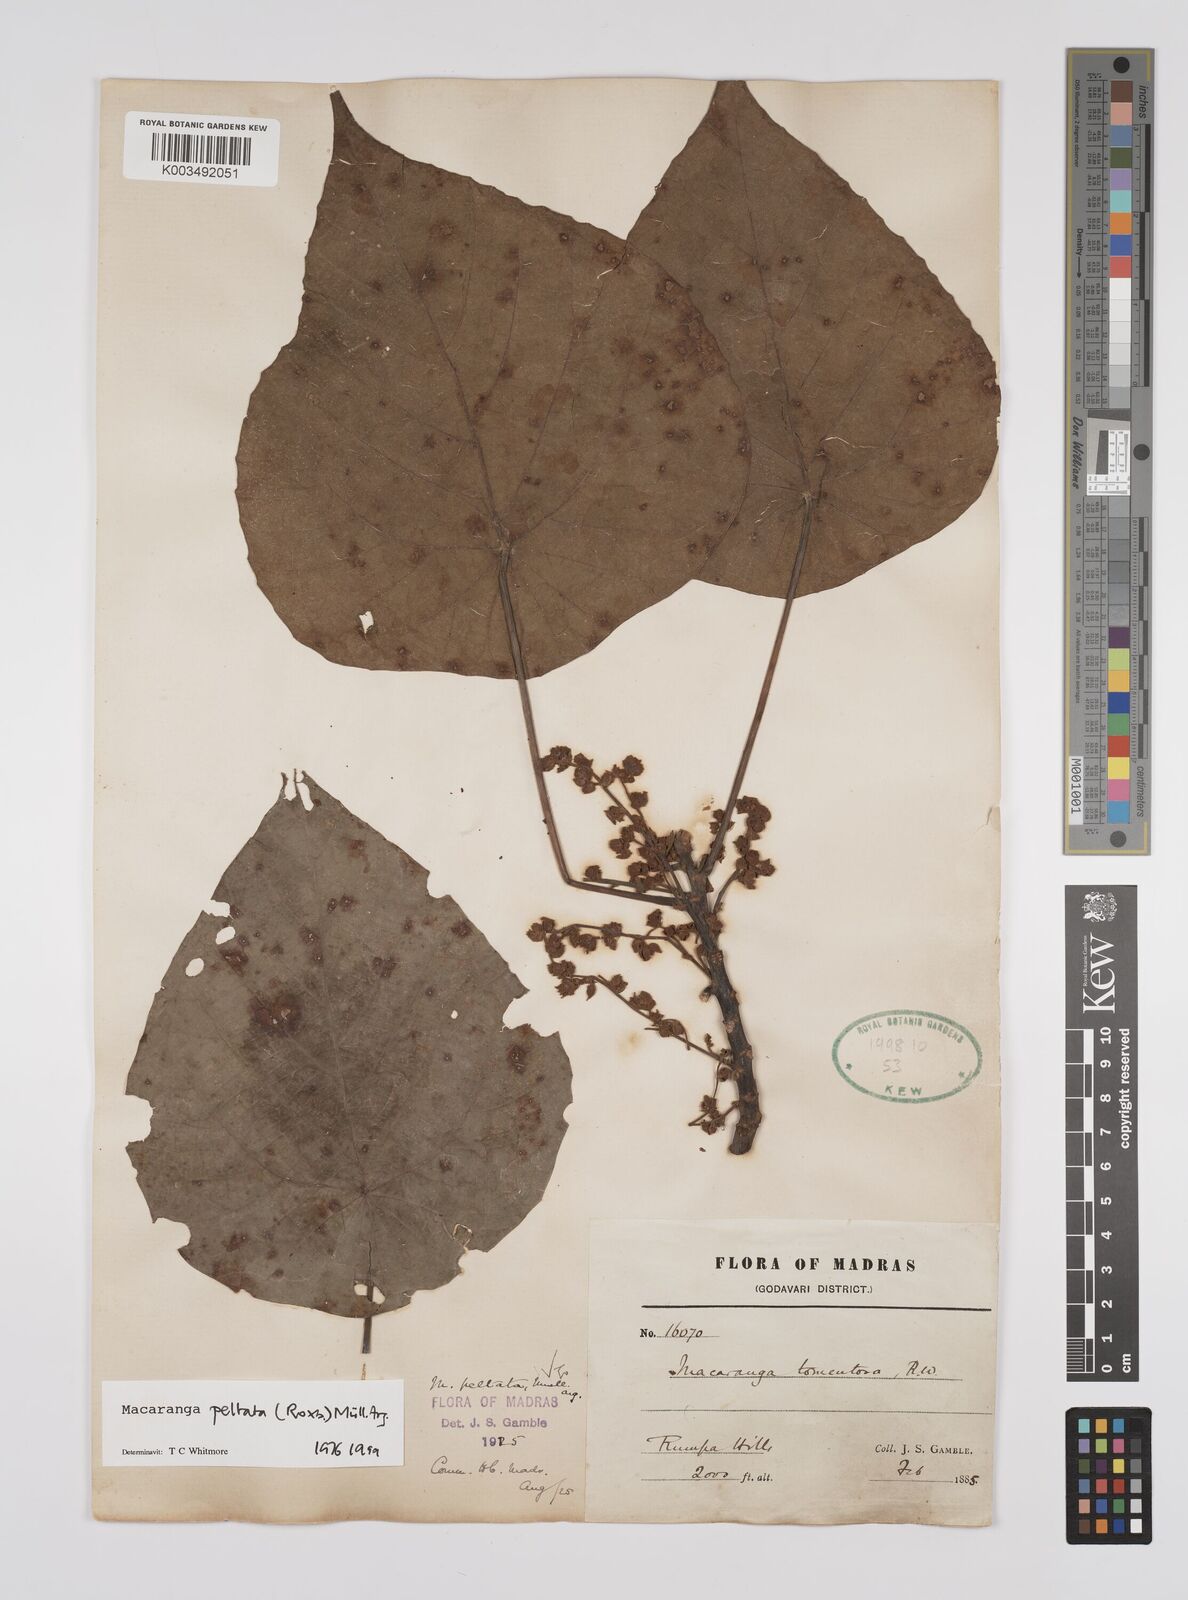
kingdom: Plantae
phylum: Tracheophyta
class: Magnoliopsida
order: Malpighiales
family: Euphorbiaceae
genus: Macaranga
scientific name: Macaranga peltata
